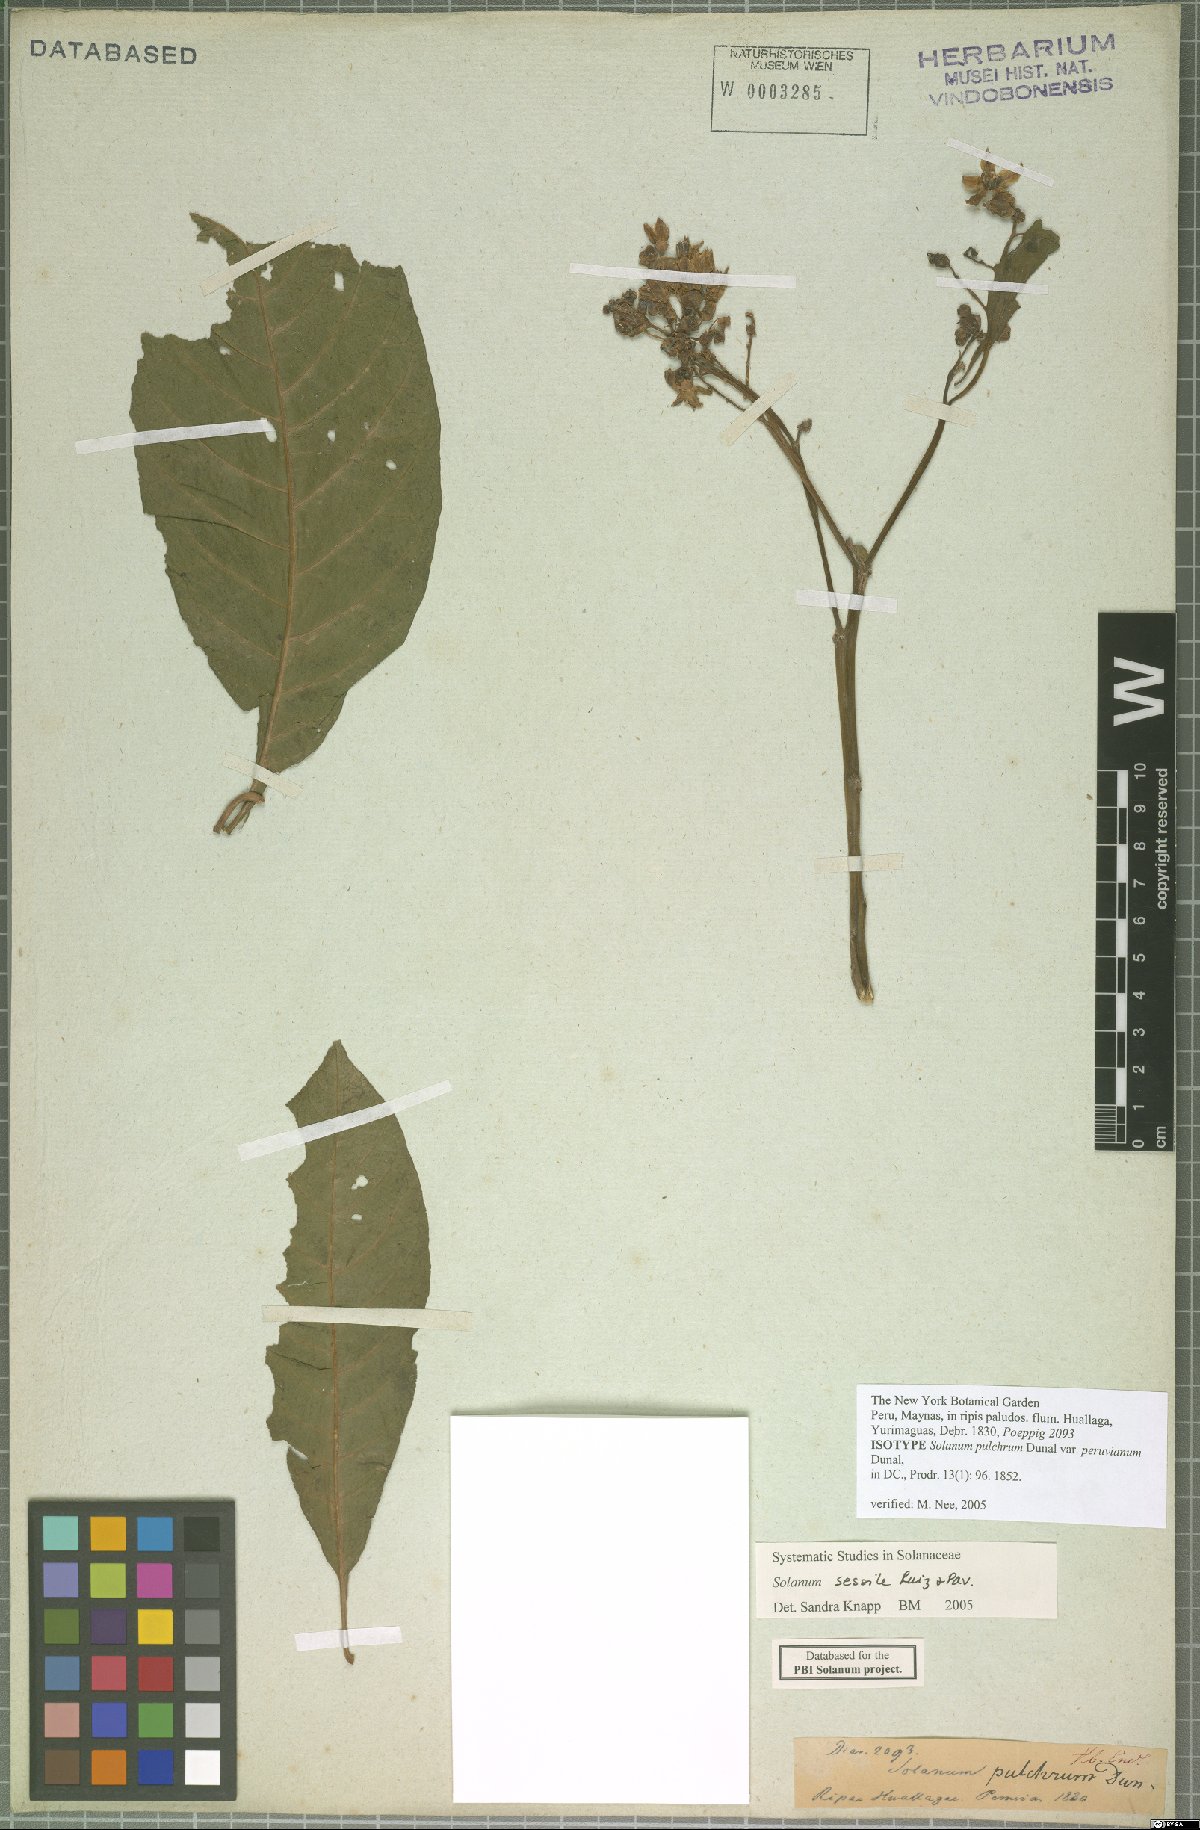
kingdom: Plantae
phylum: Tracheophyta
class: Magnoliopsida
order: Solanales
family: Solanaceae
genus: Solanum
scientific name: Solanum sessile
